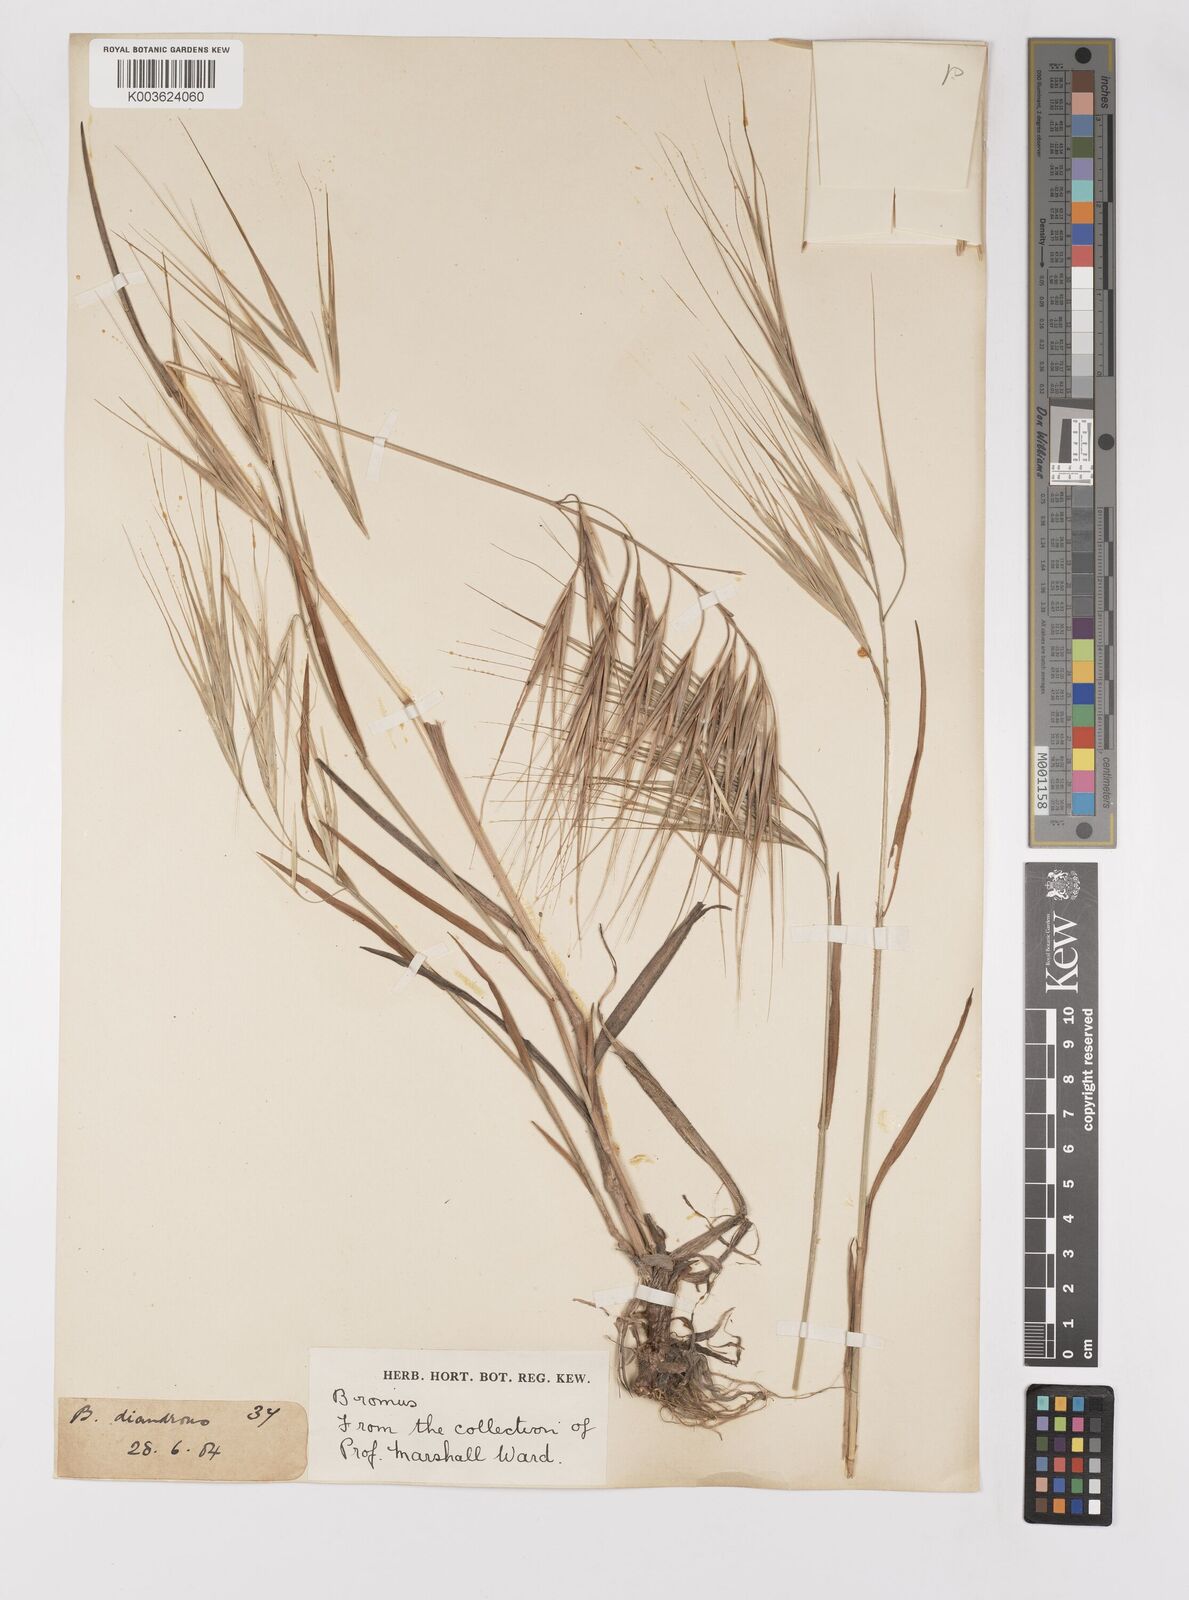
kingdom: Plantae
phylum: Tracheophyta
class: Liliopsida
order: Poales
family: Poaceae
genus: Bromus
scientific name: Bromus diandrus
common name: Ripgut brome
